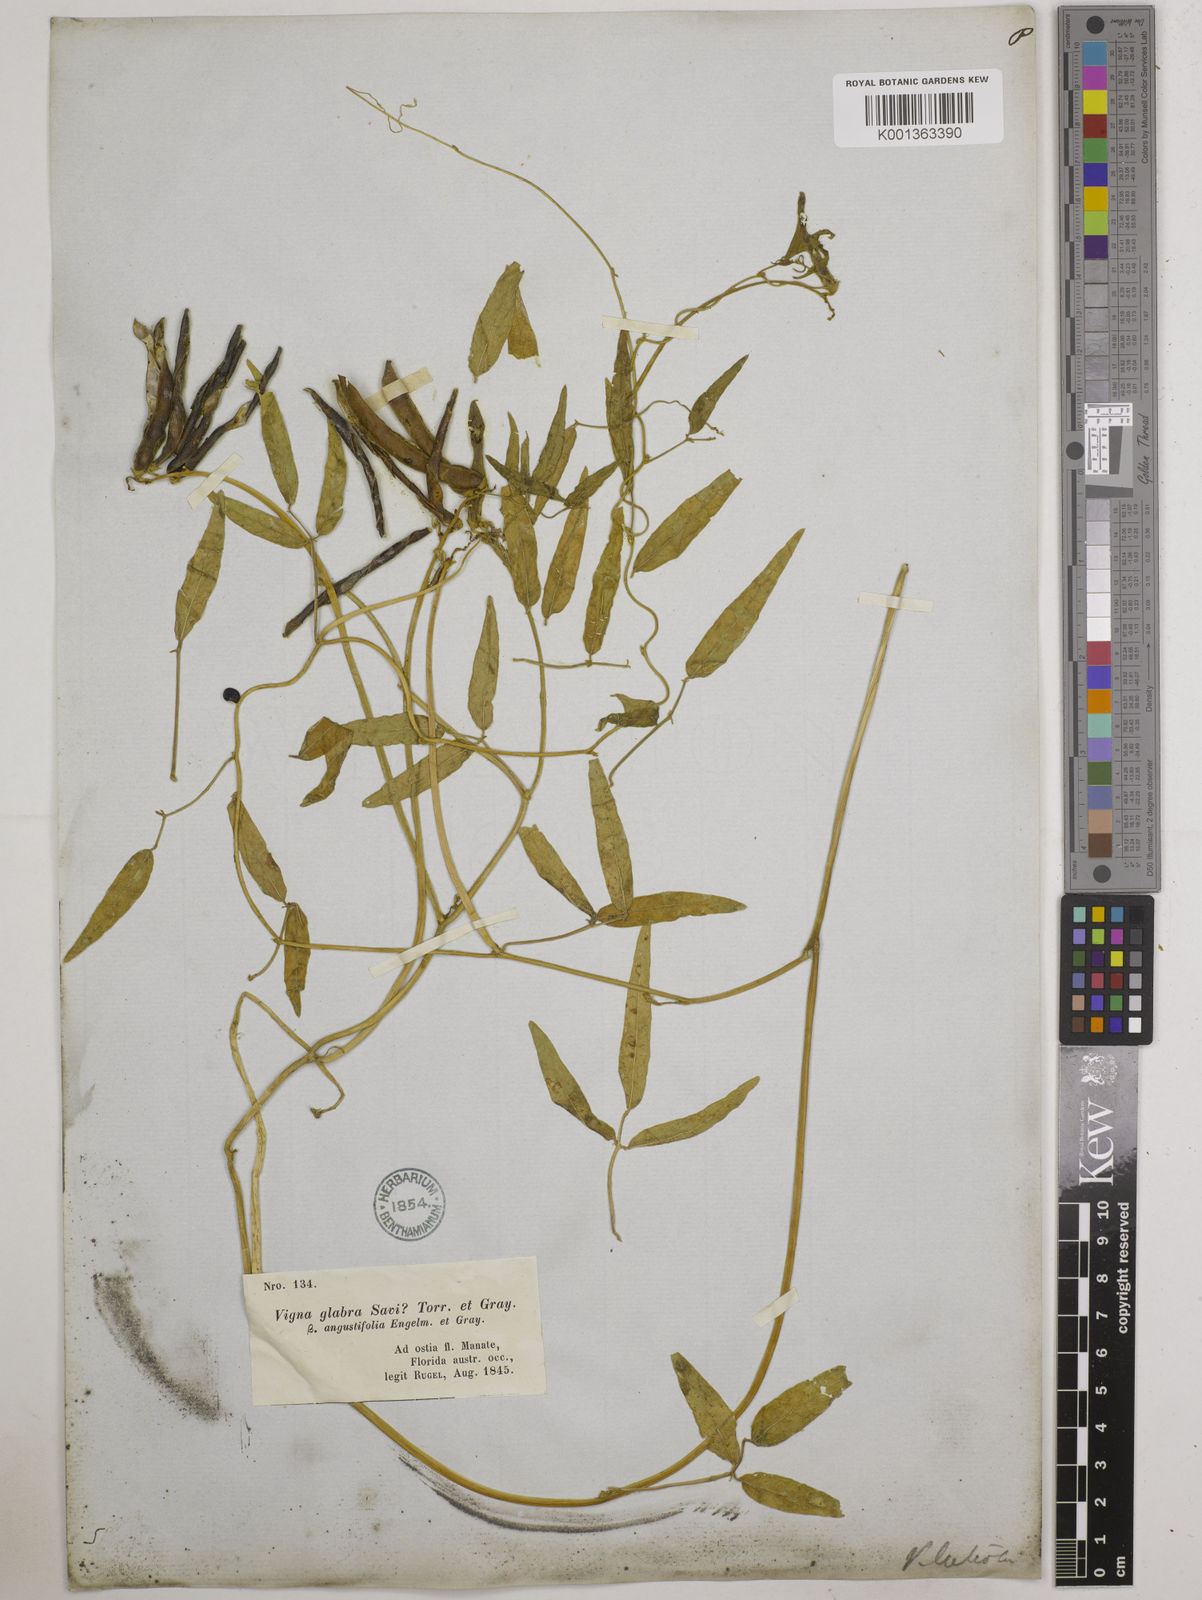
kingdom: Plantae
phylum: Tracheophyta
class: Magnoliopsida
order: Fabales
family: Fabaceae
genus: Vigna
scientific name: Vigna luteola
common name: Hairypod cowpea
